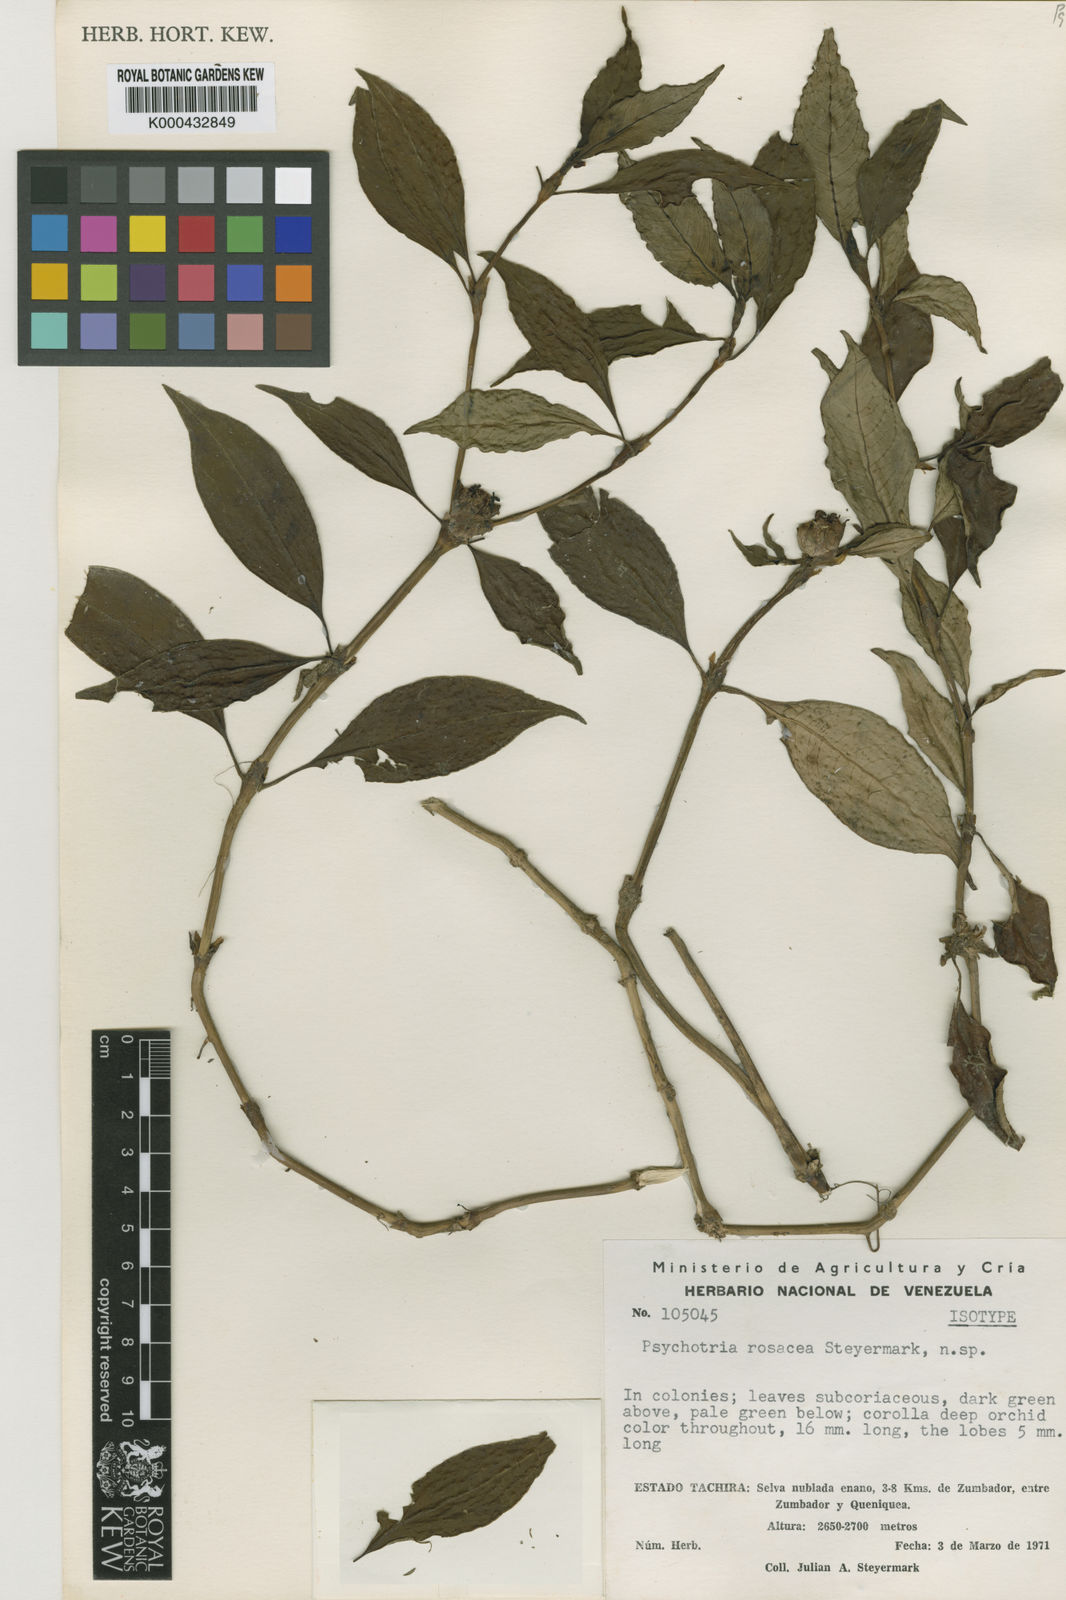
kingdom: Plantae
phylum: Tracheophyta
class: Magnoliopsida
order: Gentianales
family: Rubiaceae
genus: Palicourea
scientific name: Palicourea rosacea
